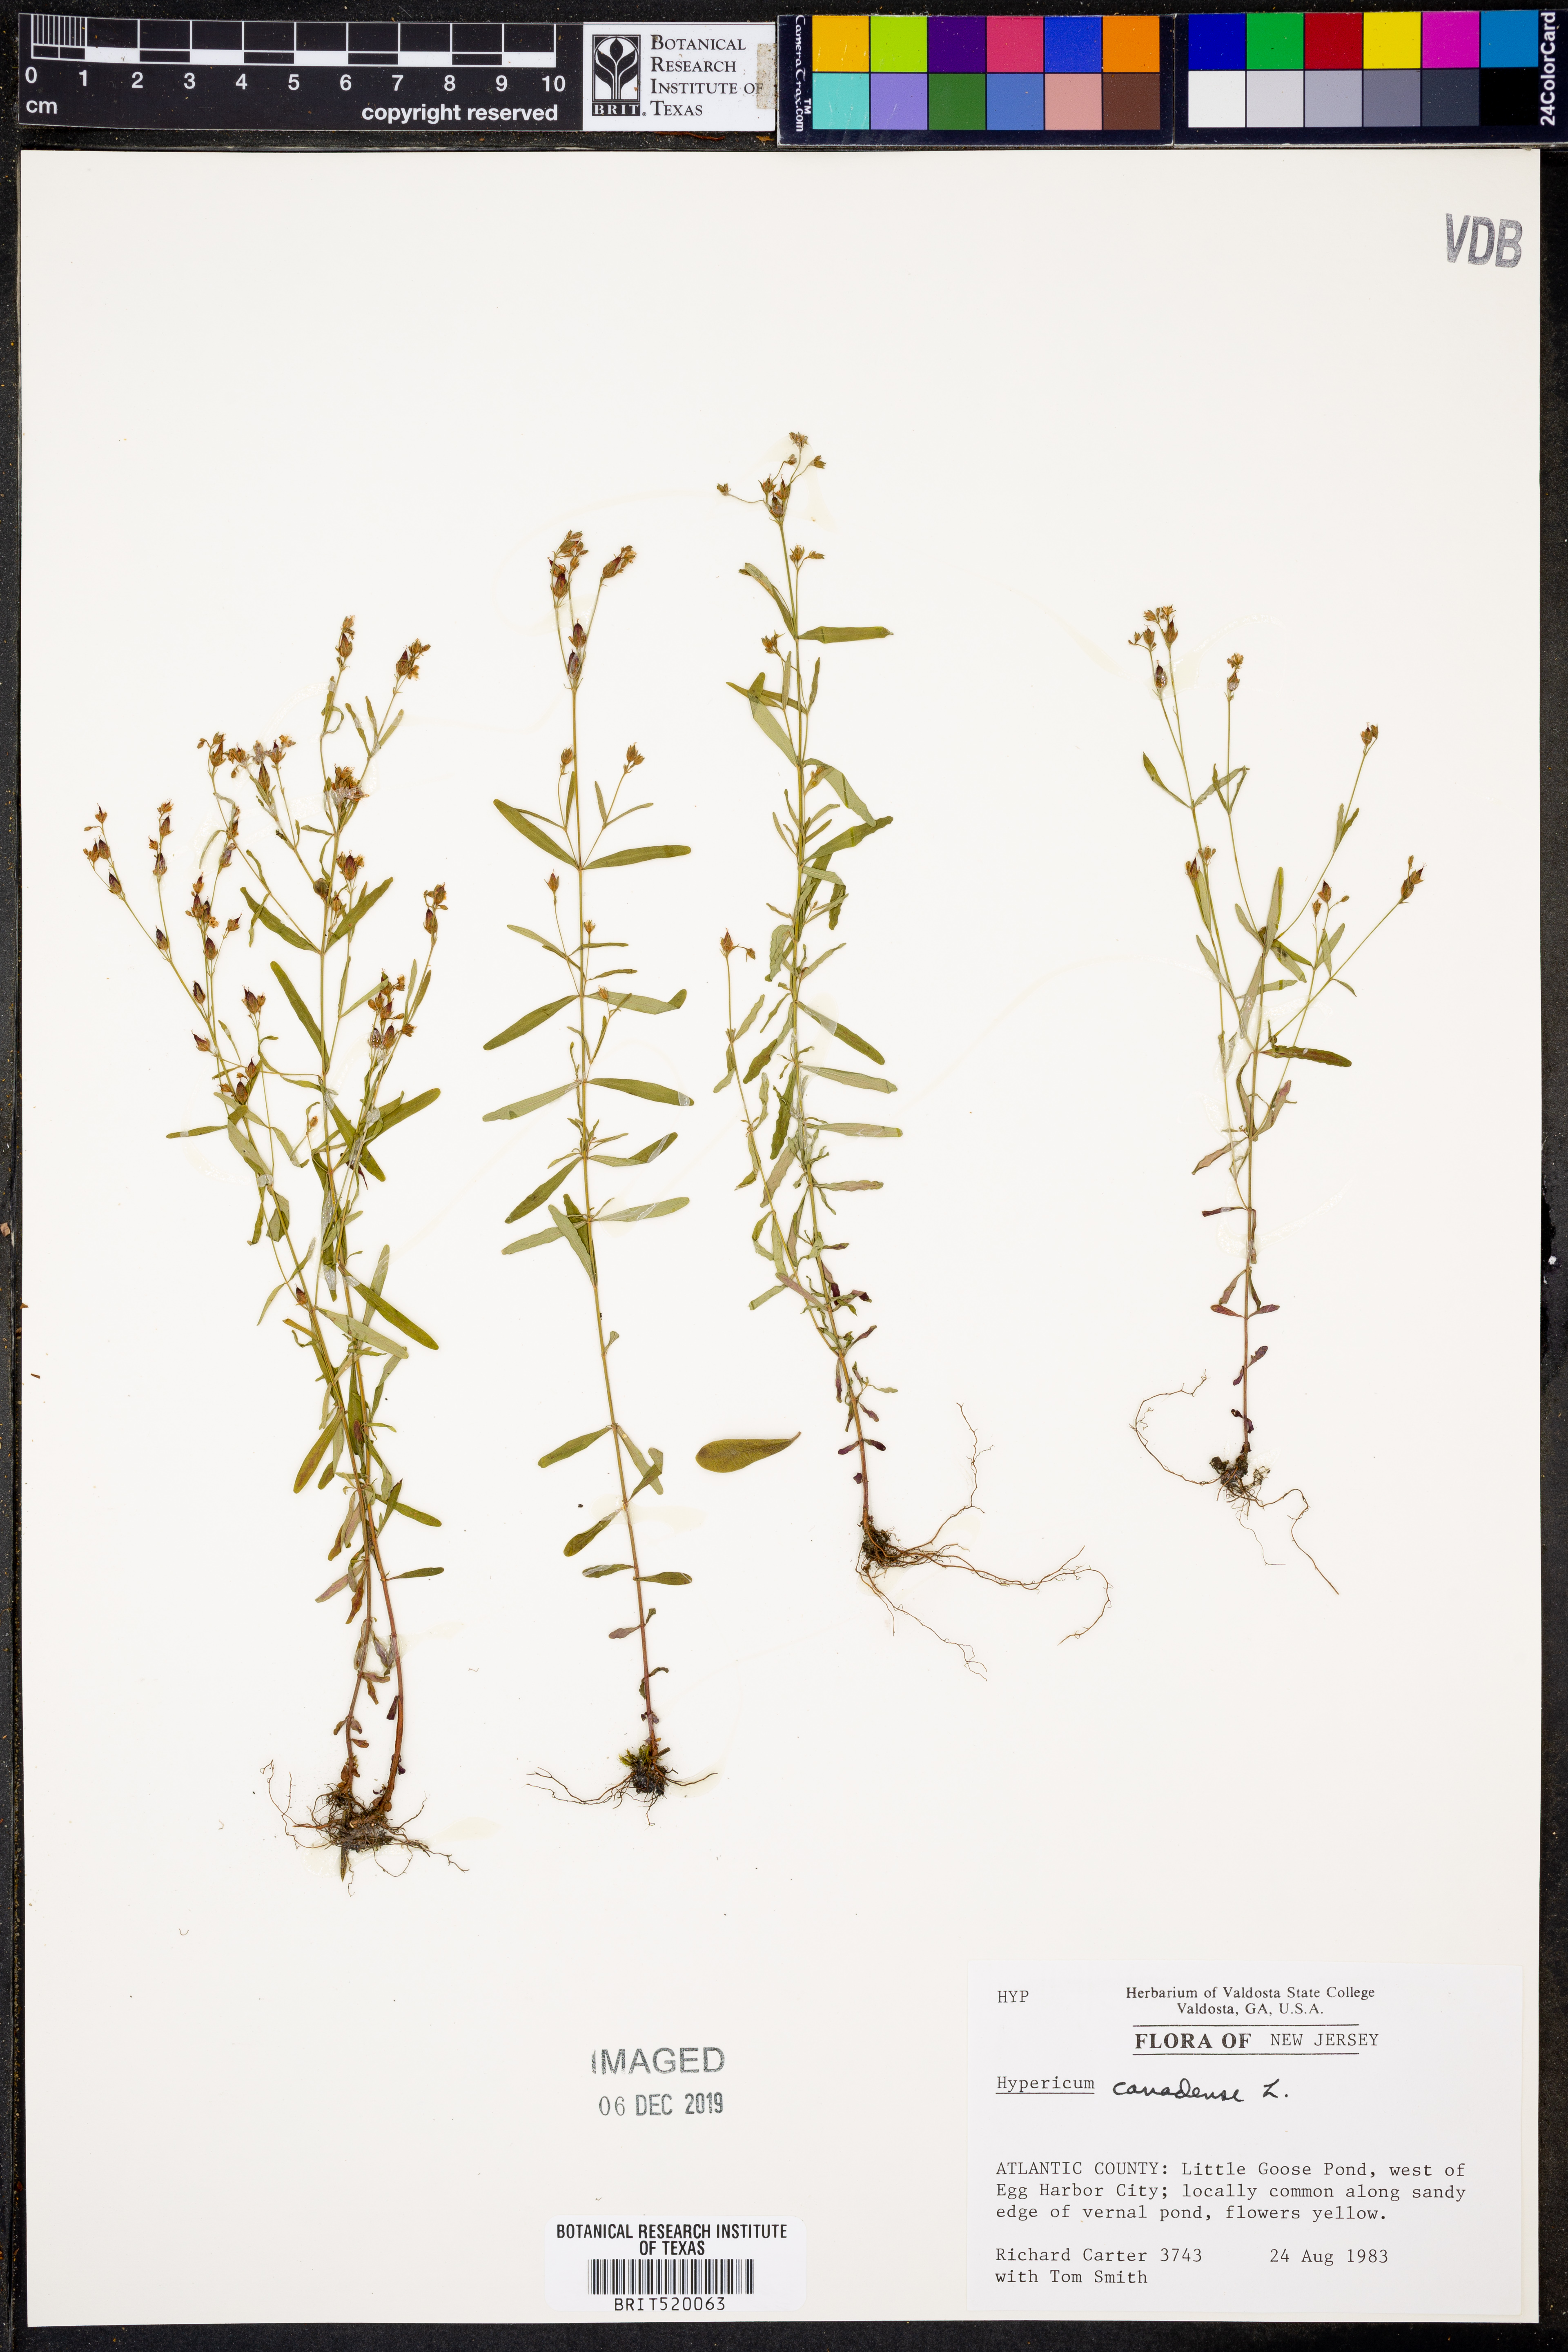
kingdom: Plantae
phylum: Tracheophyta
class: Magnoliopsida
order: Malpighiales
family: Hypericaceae
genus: Hypericum
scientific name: Hypericum canadense
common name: Irish st. john's-wort
